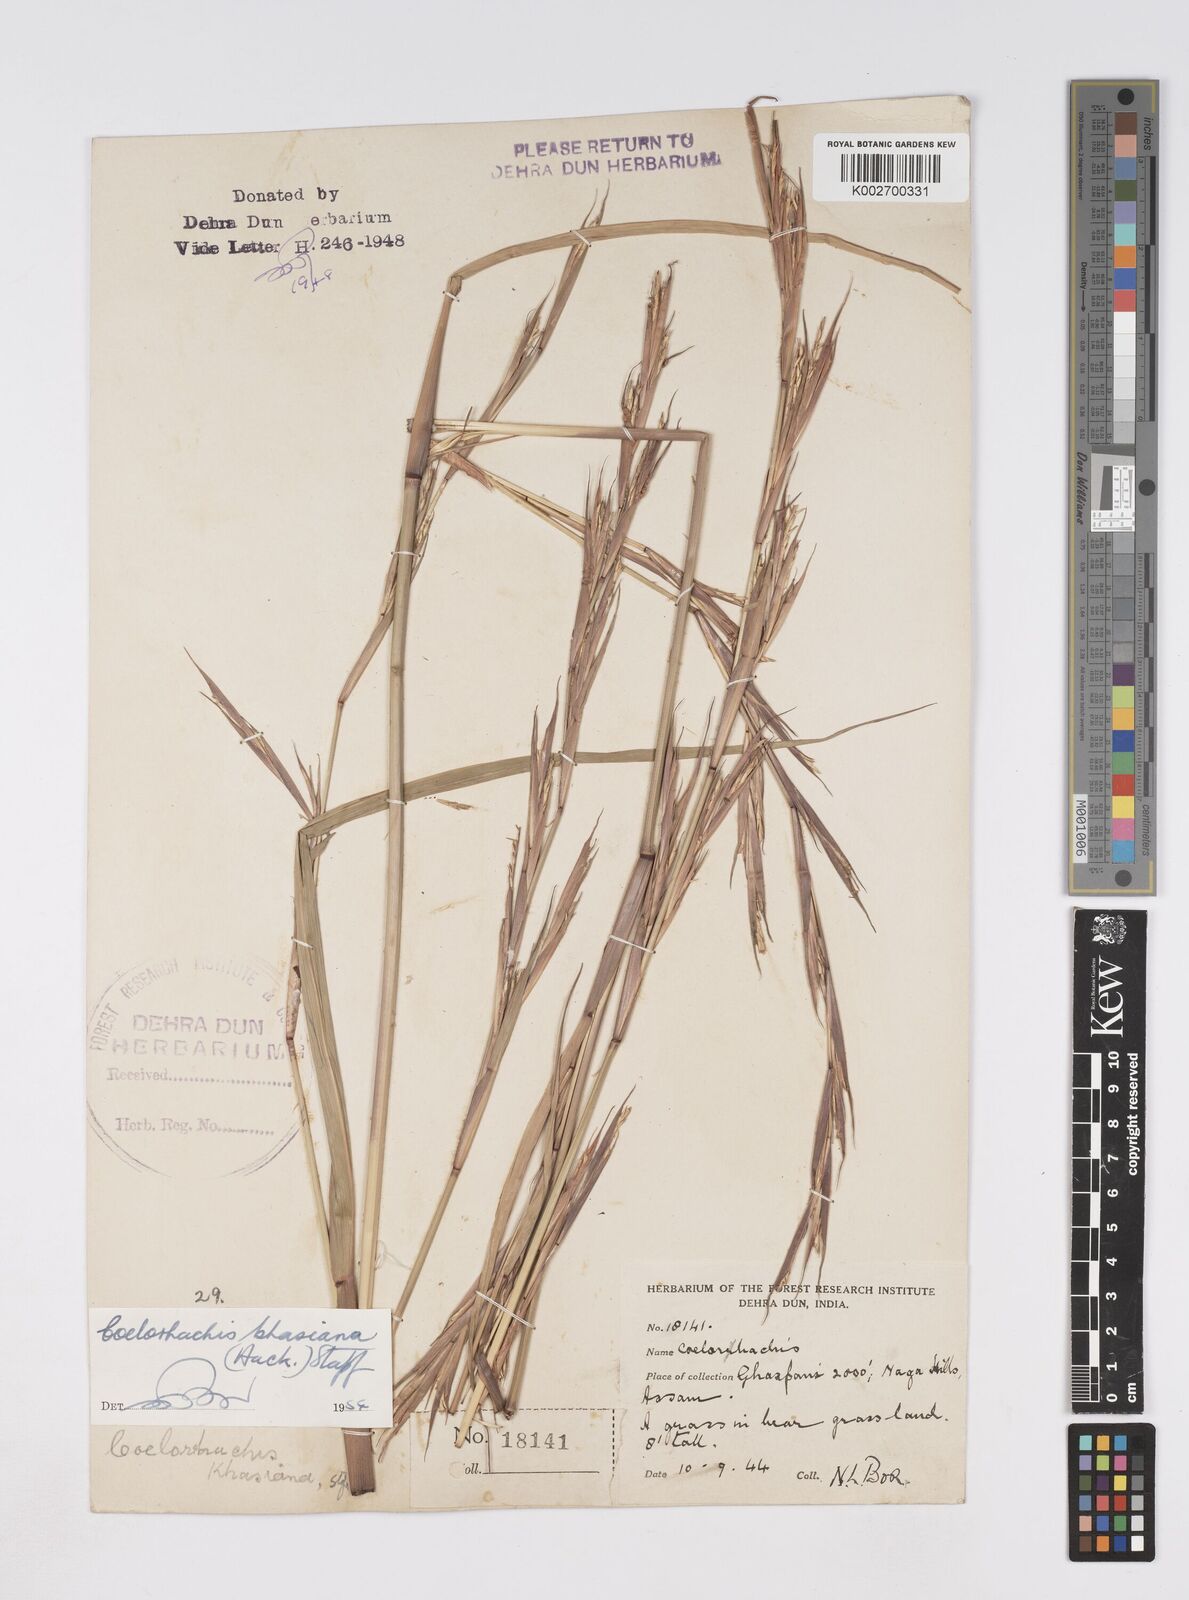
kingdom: Plantae
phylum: Tracheophyta
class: Liliopsida
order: Poales
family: Poaceae
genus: Rottboellia
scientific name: Rottboellia striata
